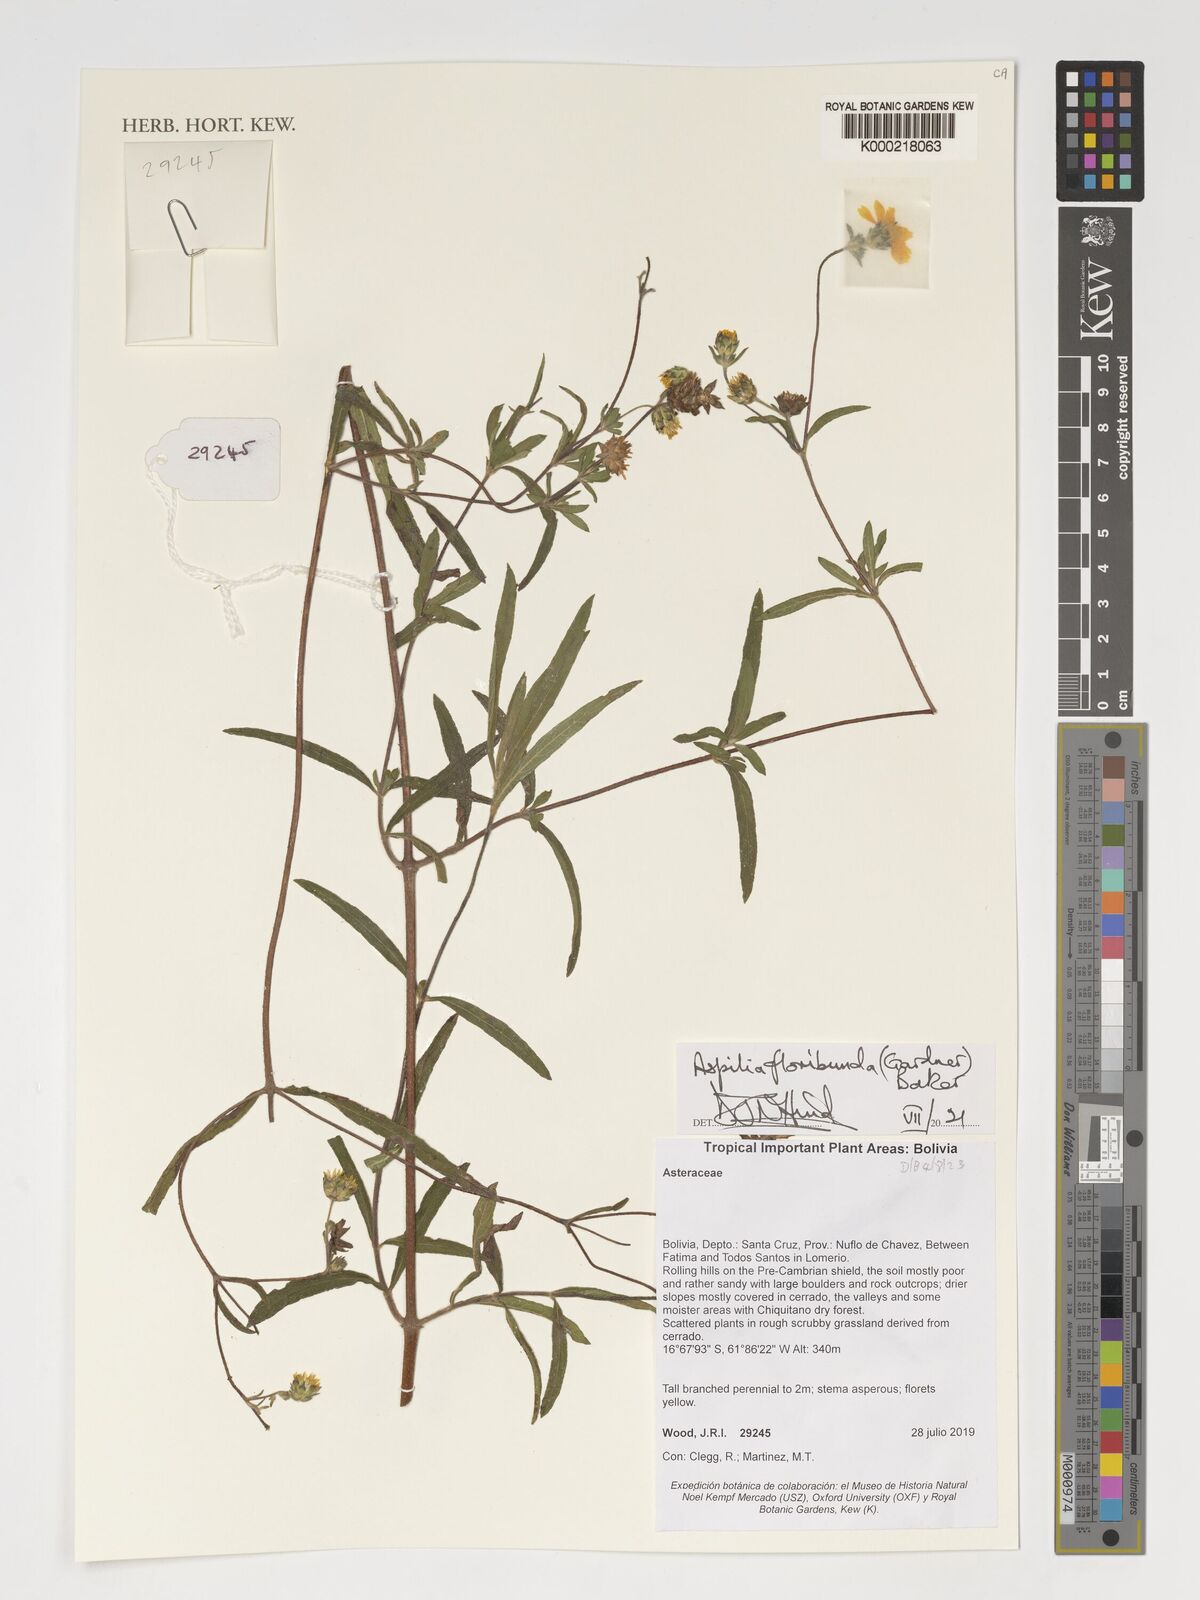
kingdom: Plantae
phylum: Tracheophyta
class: Magnoliopsida
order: Asterales
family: Asteraceae
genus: Wedelia
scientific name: Wedelia floribunda
